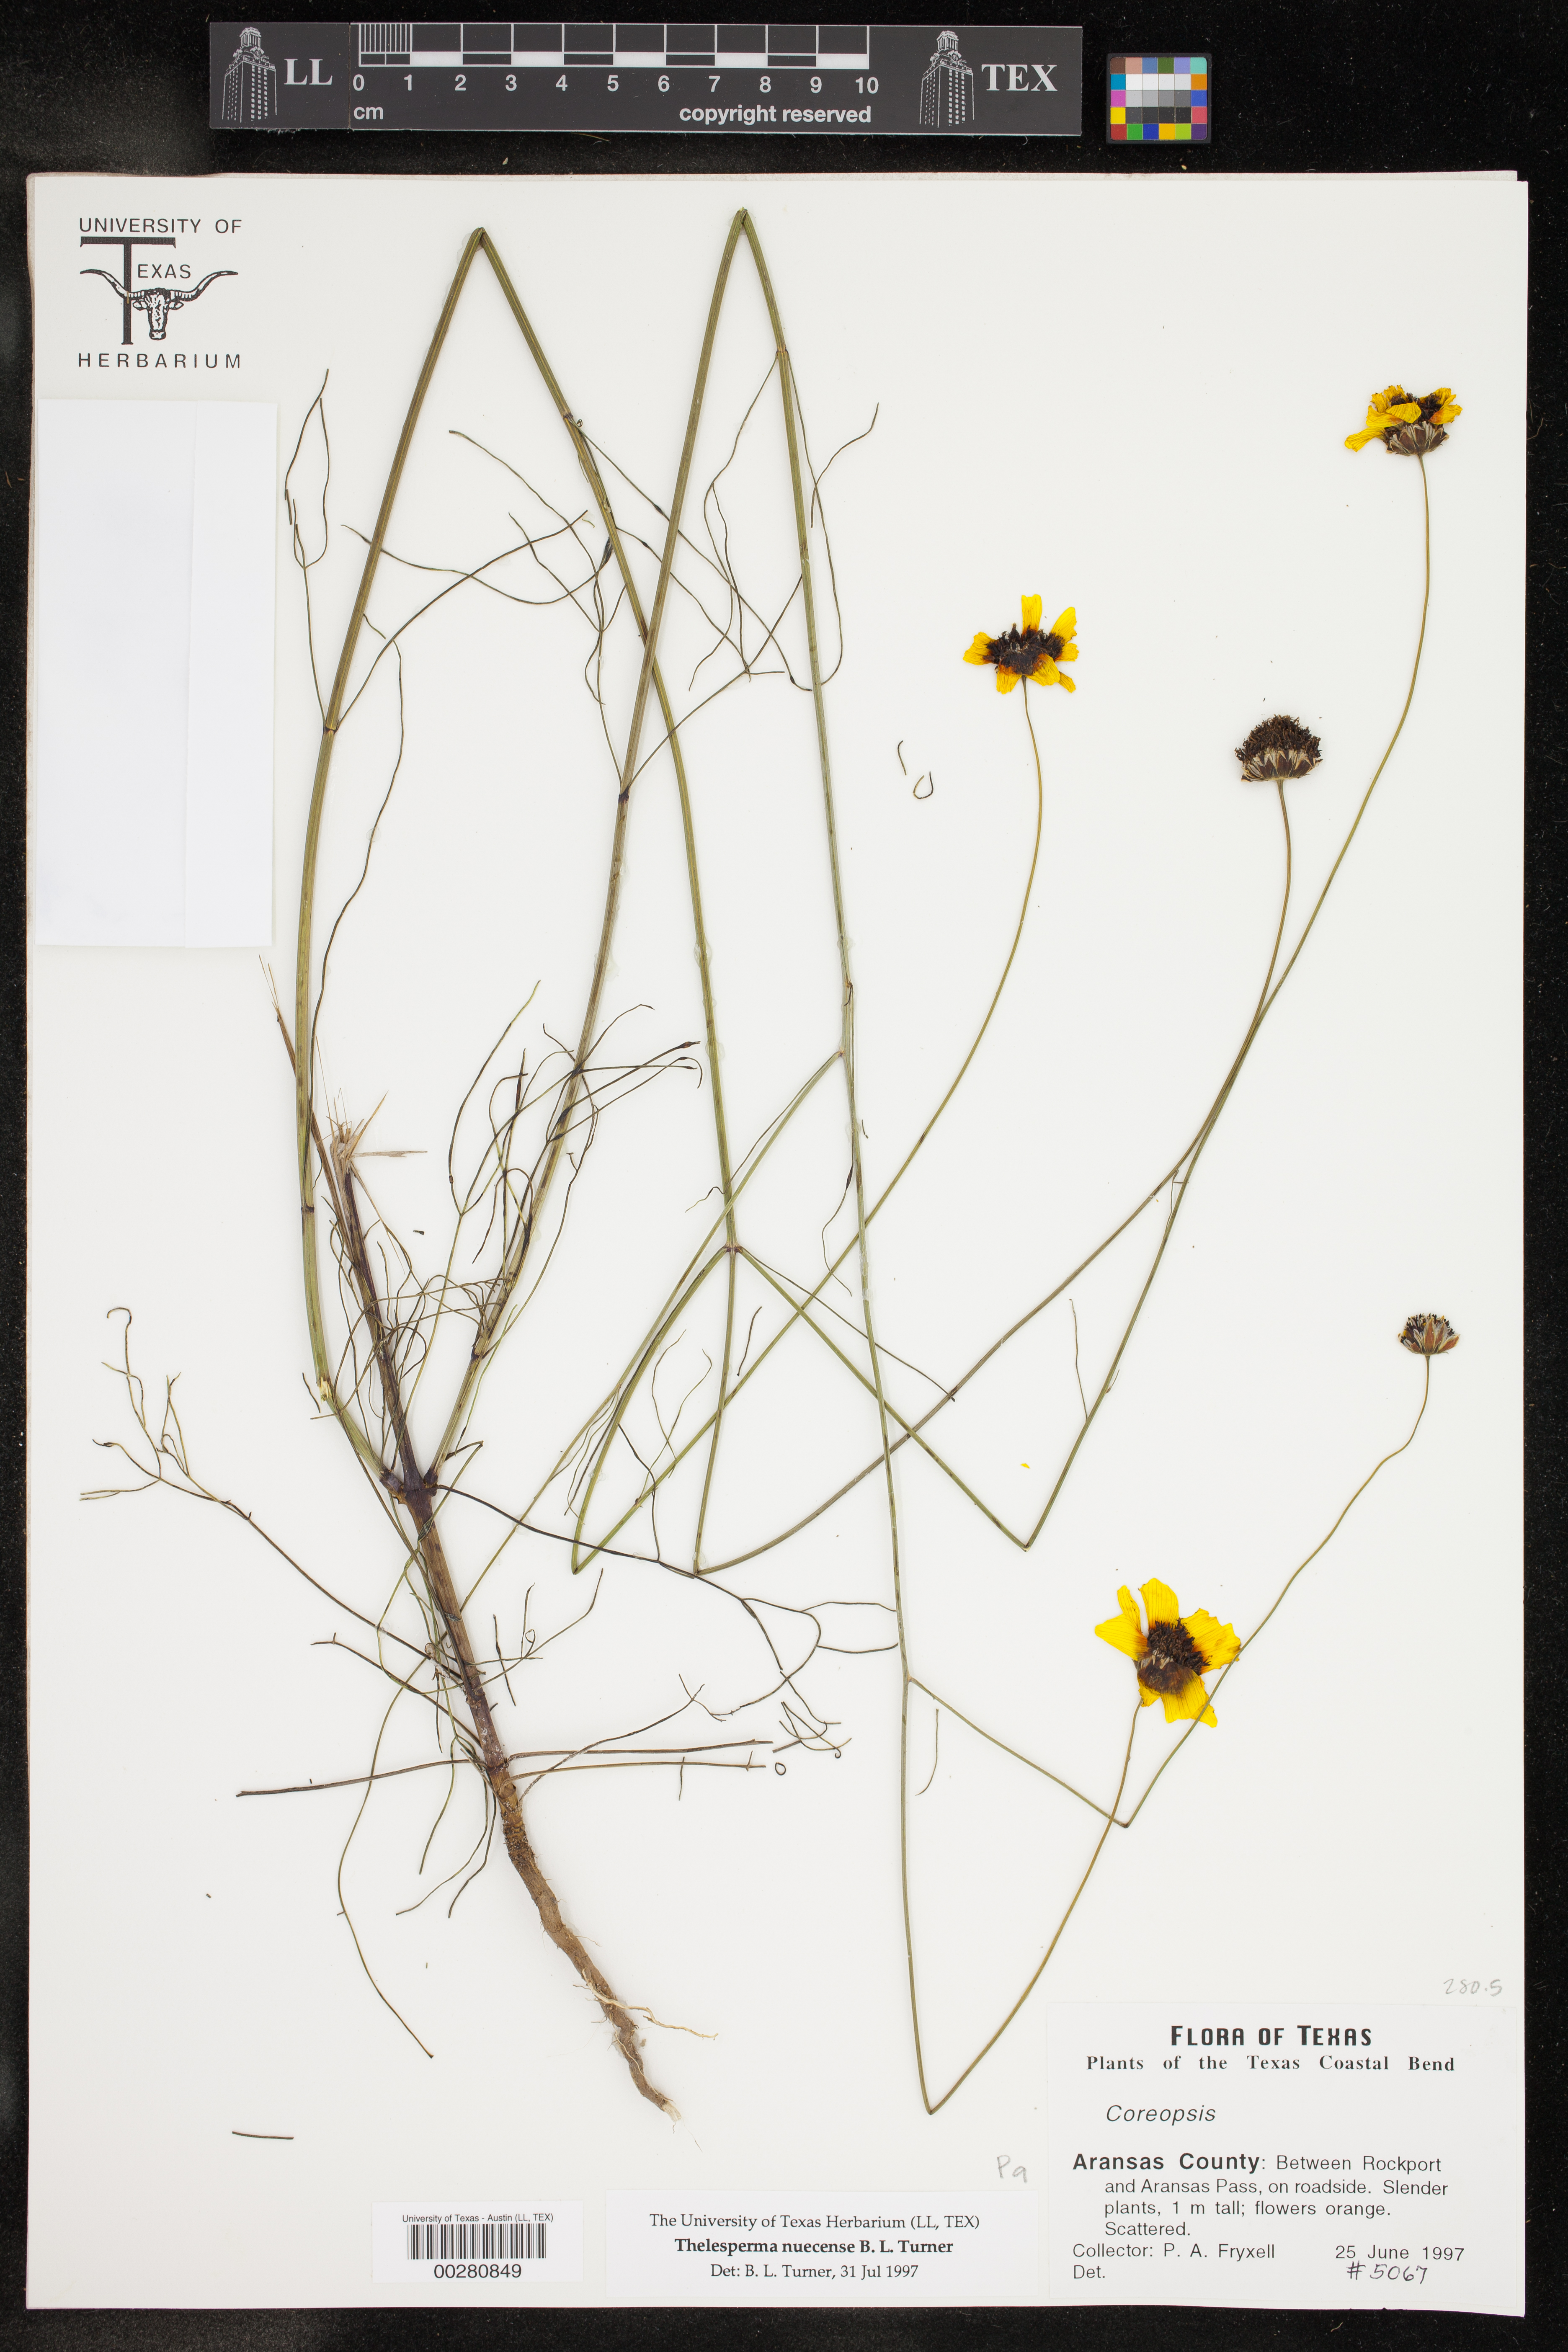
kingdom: Plantae
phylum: Tracheophyta
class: Magnoliopsida
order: Asterales
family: Asteraceae
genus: Thelesperma
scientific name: Thelesperma nuecense
